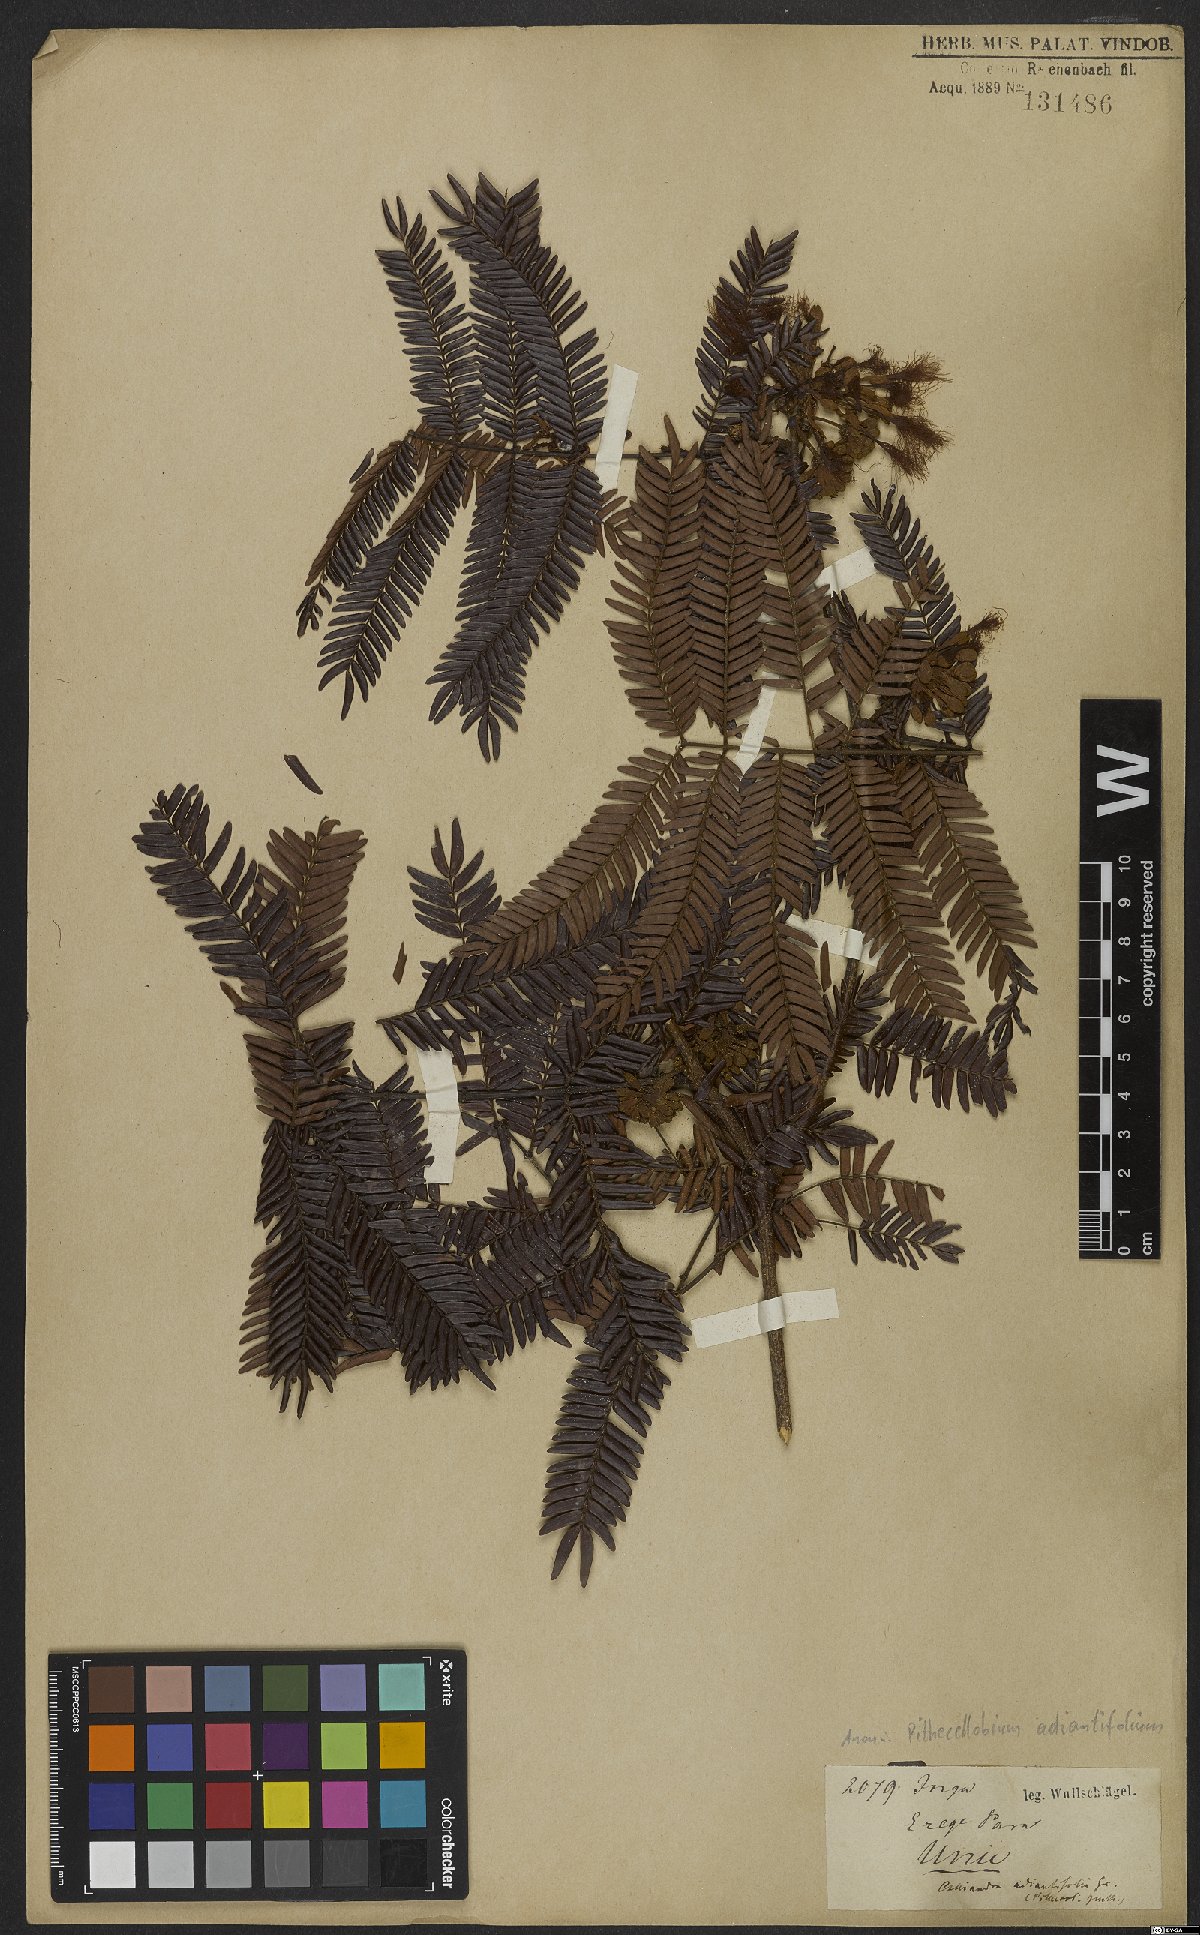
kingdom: Plantae
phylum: Tracheophyta
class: Magnoliopsida
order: Fabales
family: Fabaceae
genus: Macrosamanea
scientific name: Macrosamanea discolor
